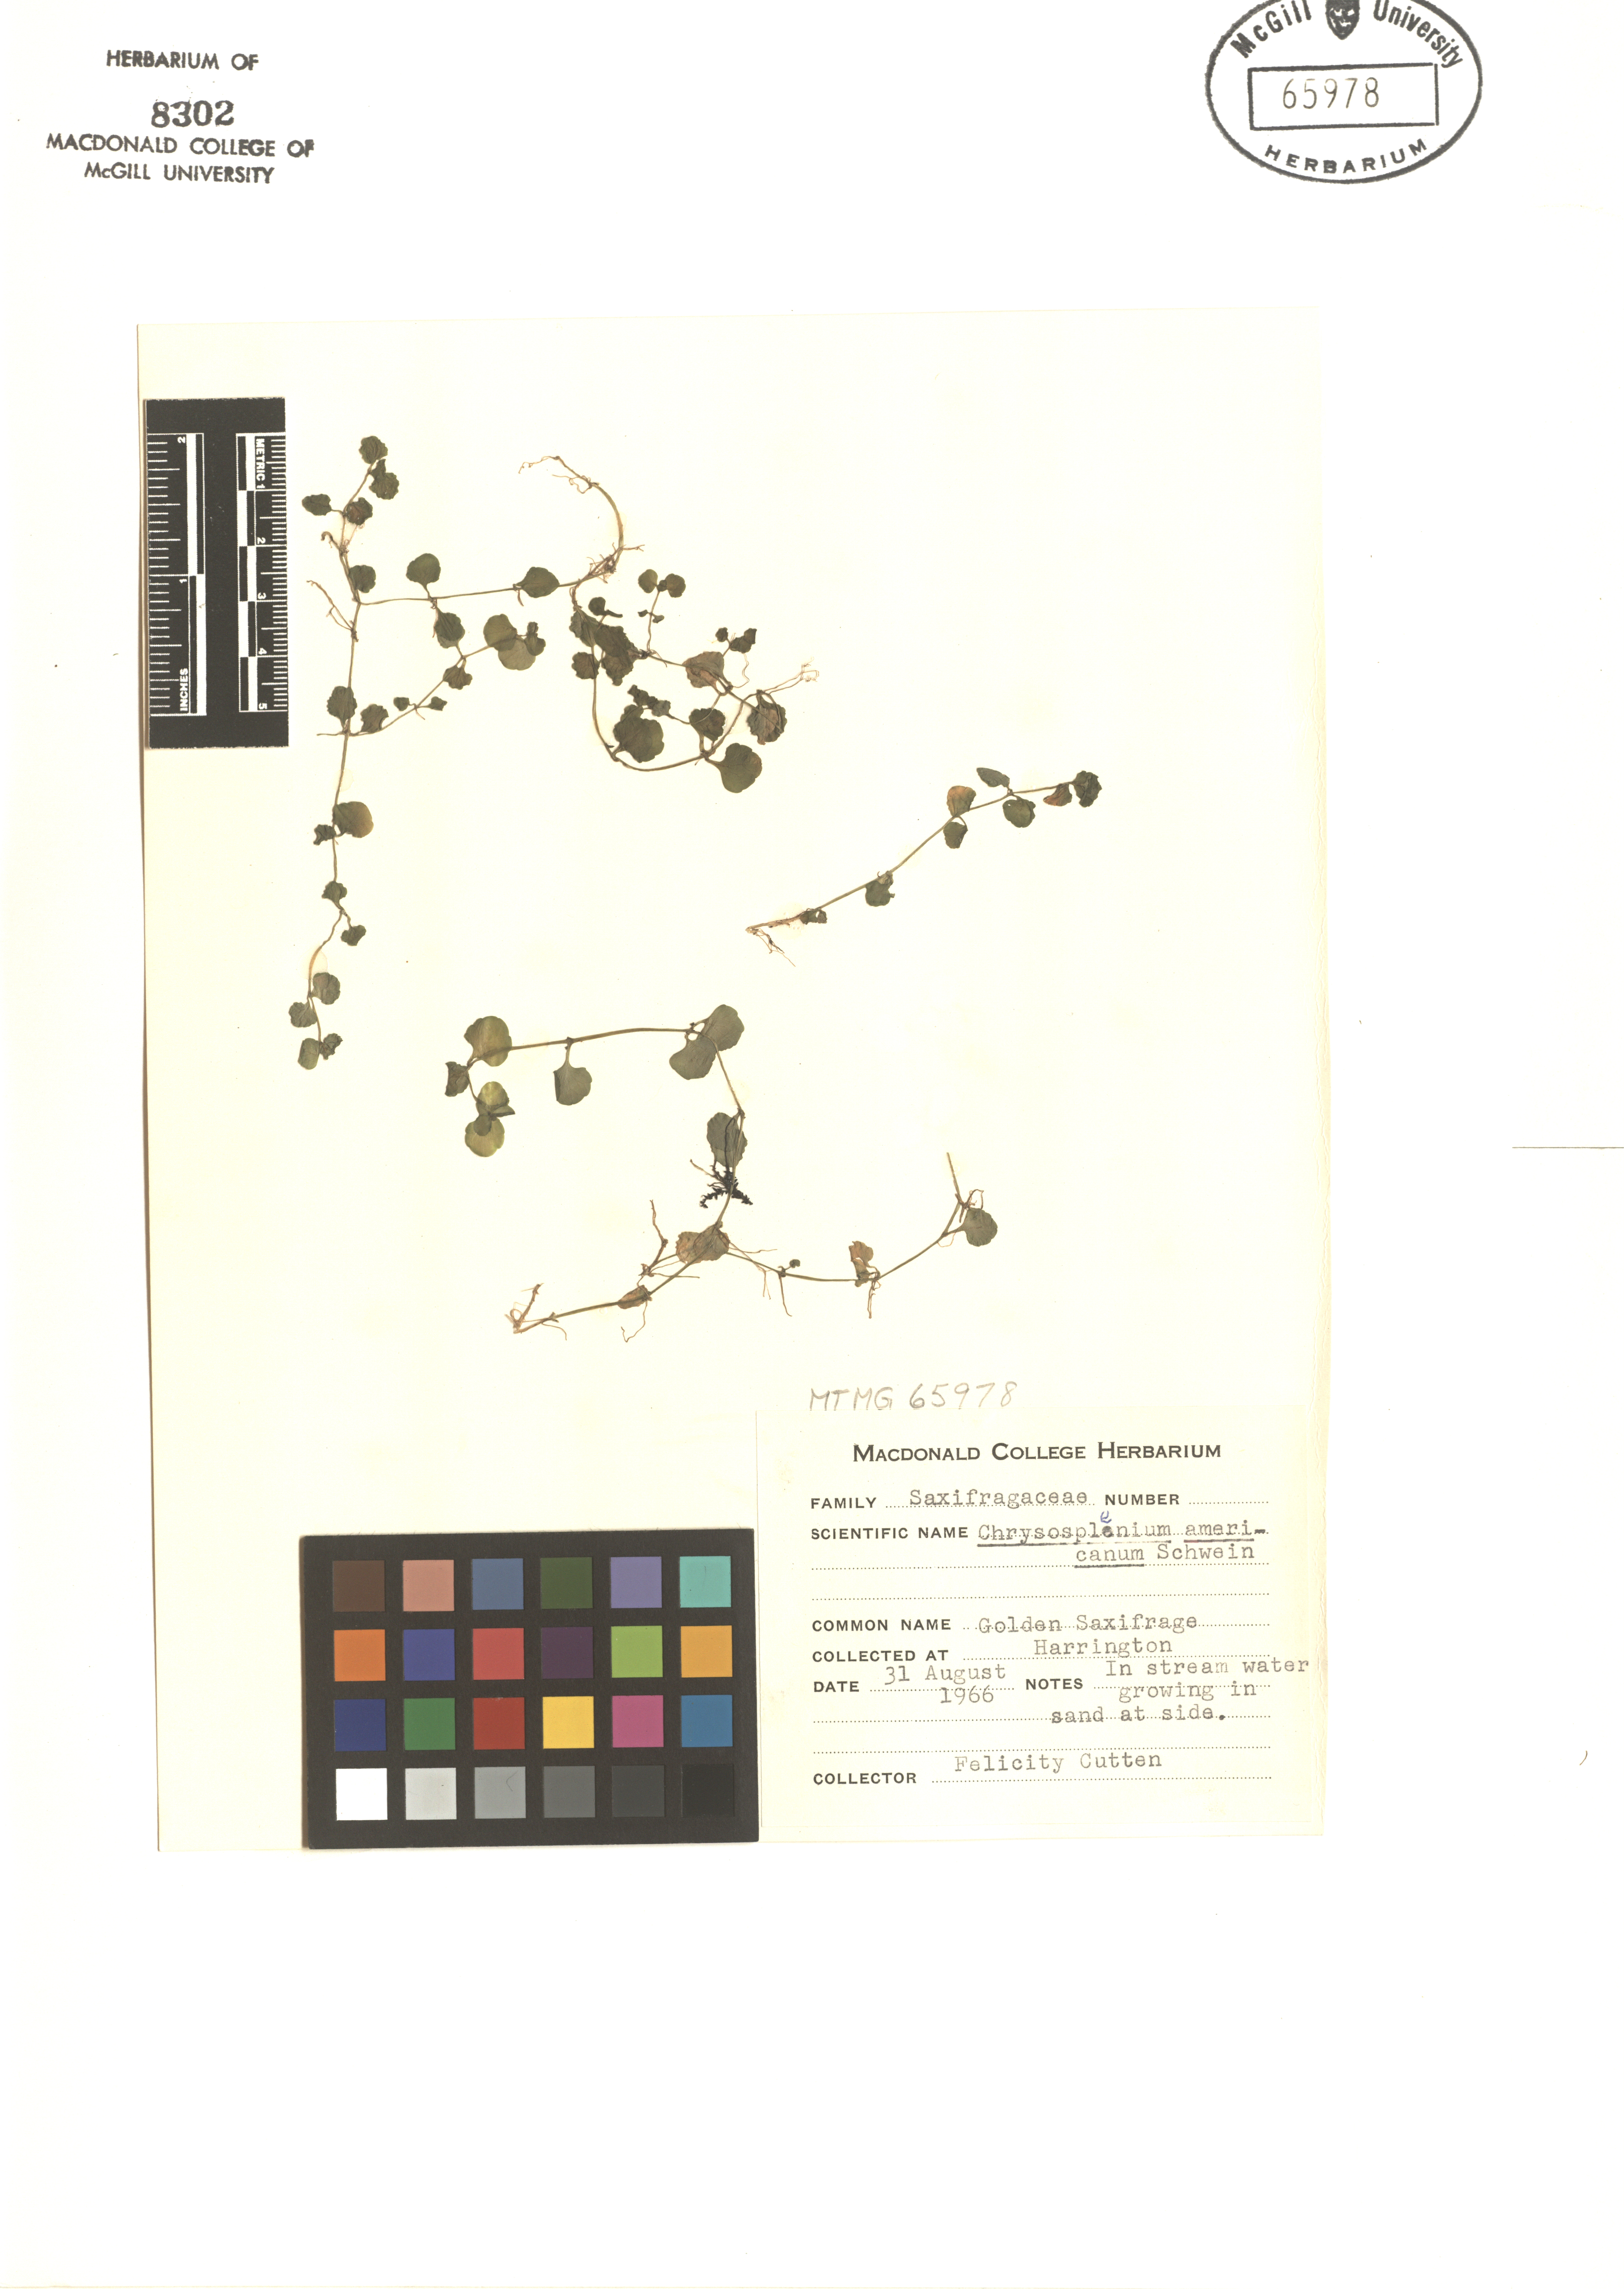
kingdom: Plantae
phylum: Tracheophyta
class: Magnoliopsida
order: Saxifragales
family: Saxifragaceae
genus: Chrysosplenium
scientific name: Chrysosplenium americanum
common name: American golden-saxifrage
